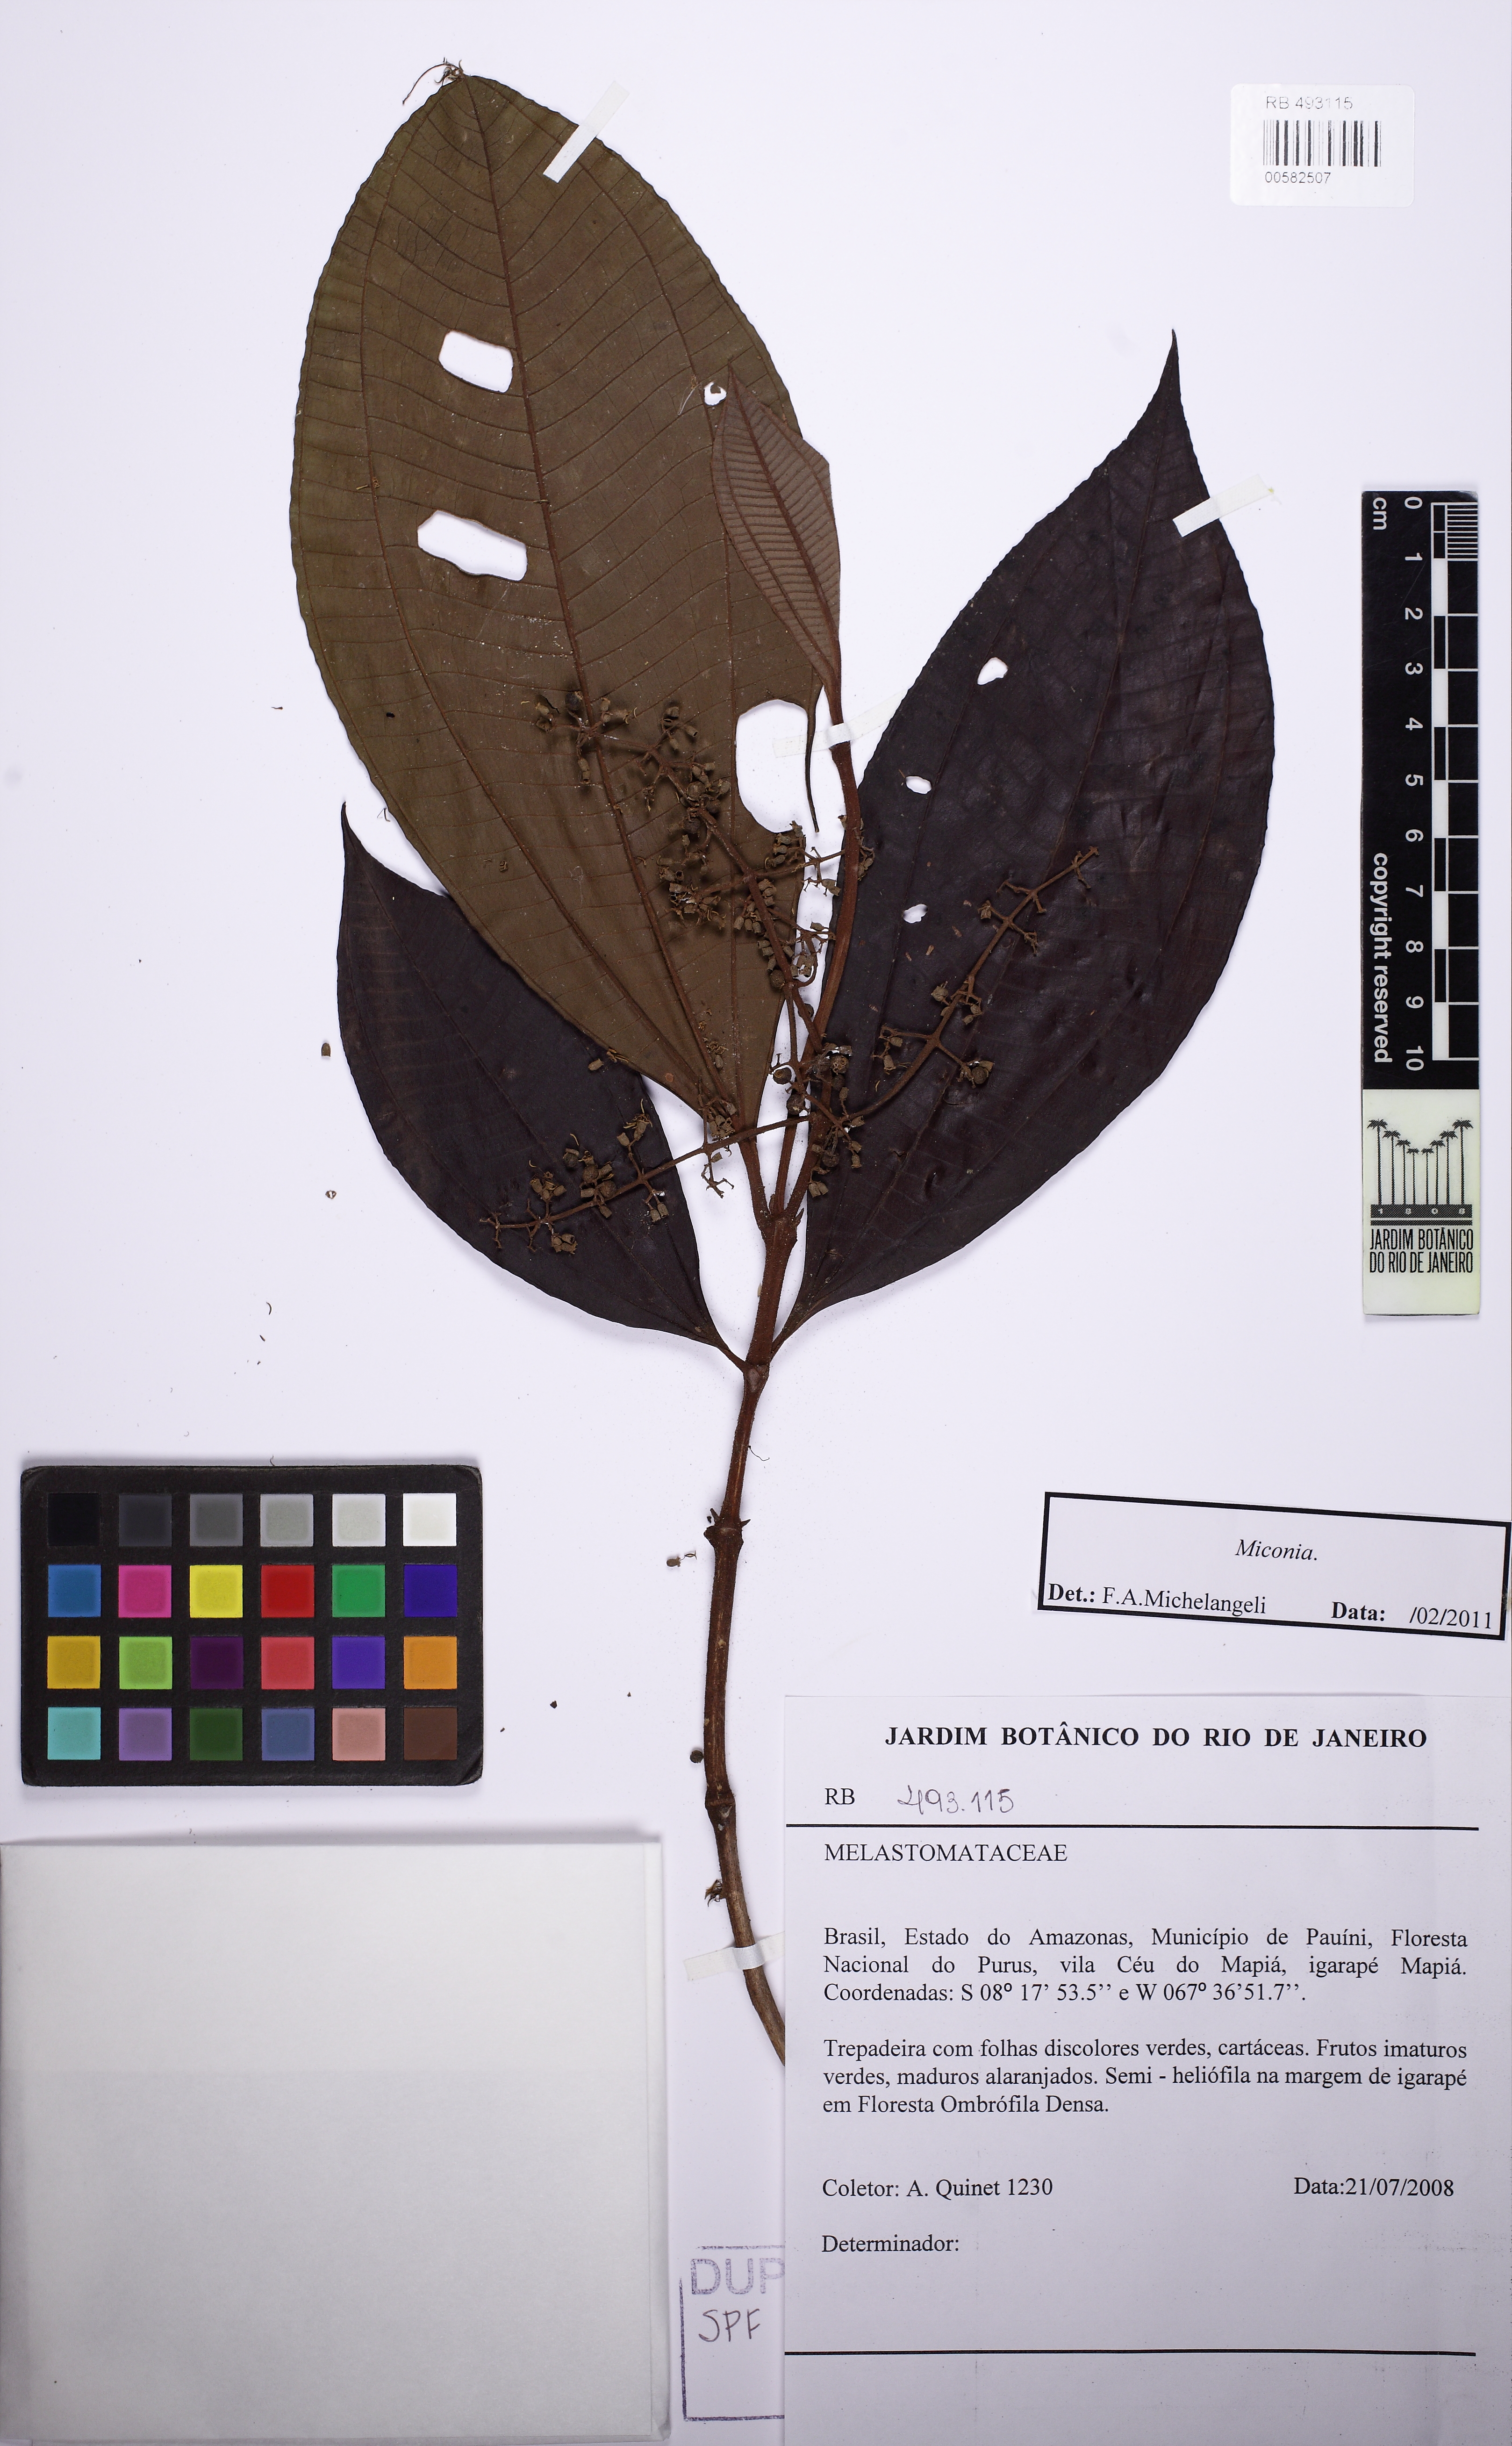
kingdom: Plantae
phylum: Tracheophyta
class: Magnoliopsida
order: Myrtales
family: Melastomataceae
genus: Miconia
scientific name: Miconia
